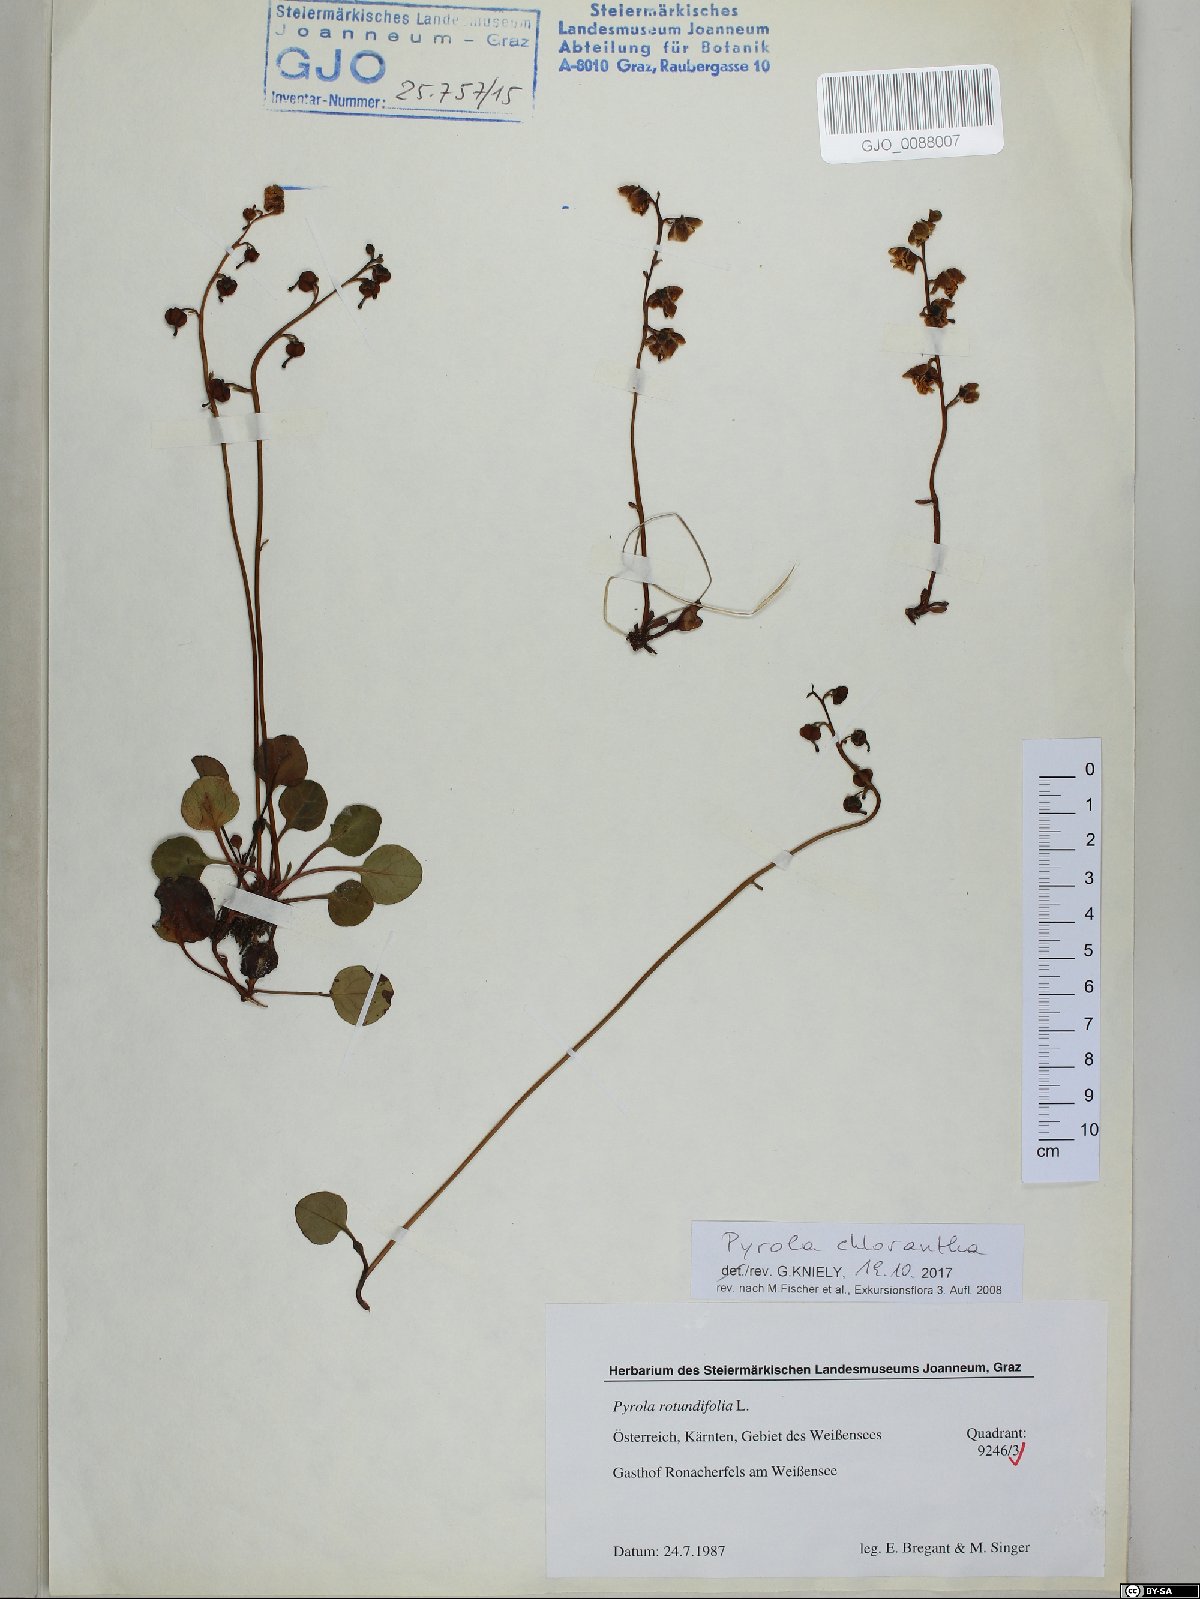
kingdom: Plantae
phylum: Tracheophyta
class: Magnoliopsida
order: Ericales
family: Ericaceae
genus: Pyrola
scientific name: Pyrola chlorantha
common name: Green wintergreen
